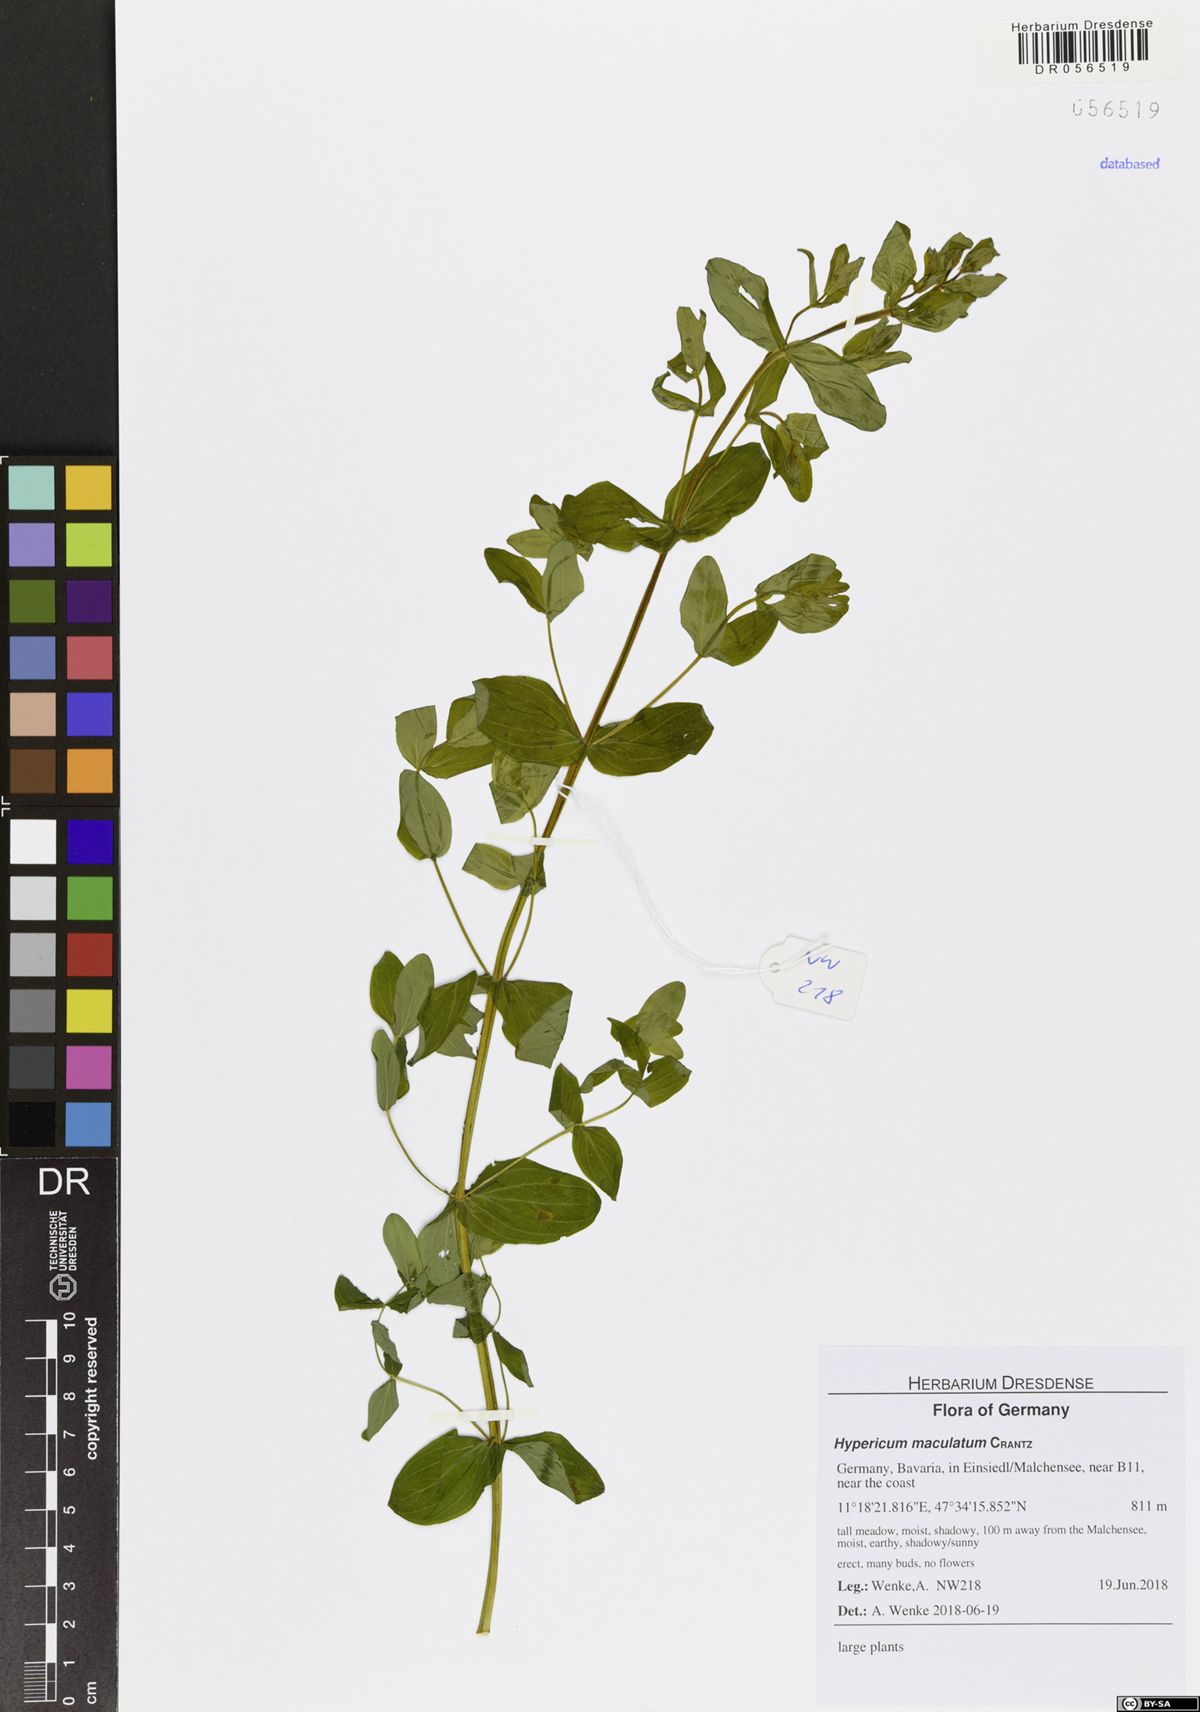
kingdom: Plantae
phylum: Tracheophyta
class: Magnoliopsida
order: Malpighiales
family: Hypericaceae
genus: Hypericum
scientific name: Hypericum maculatum
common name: Imperforate st. john's-wort
